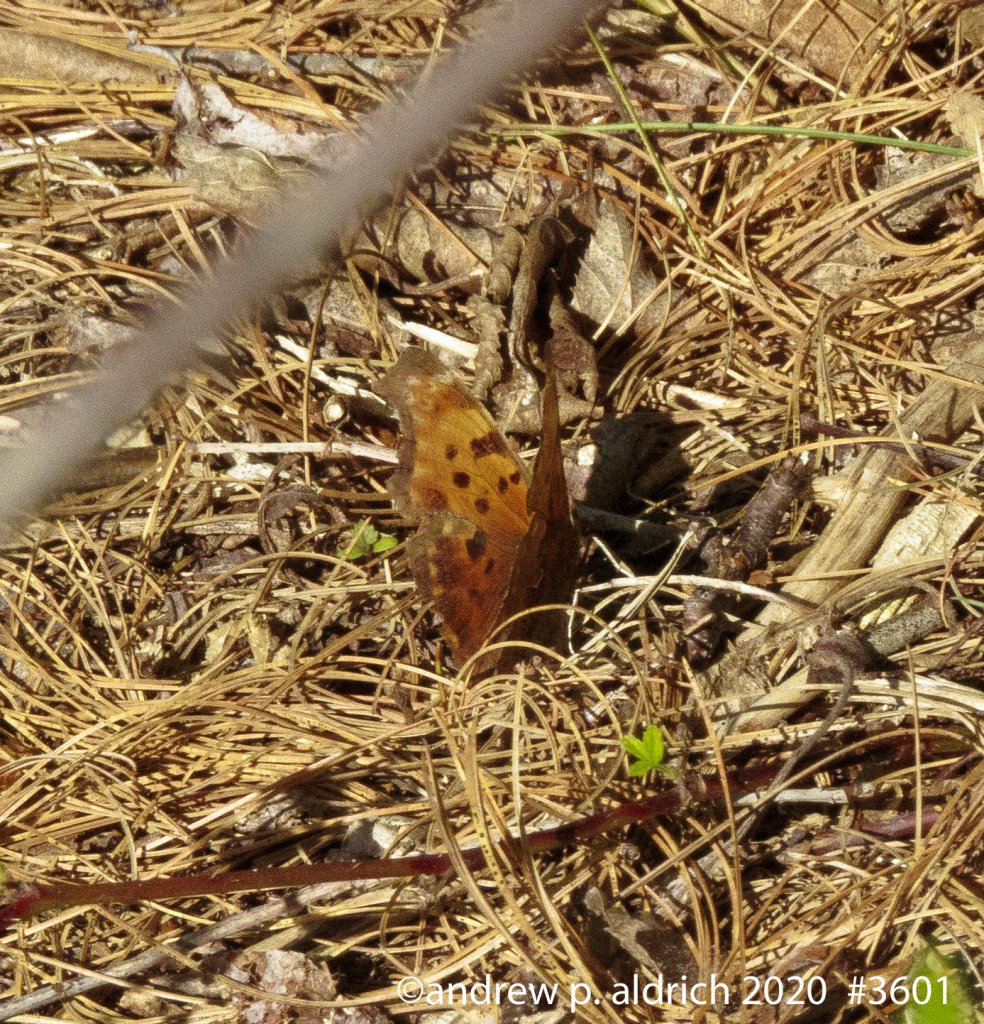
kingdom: Animalia
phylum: Arthropoda
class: Insecta
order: Lepidoptera
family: Nymphalidae
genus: Polygonia
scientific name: Polygonia comma
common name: Eastern Comma
